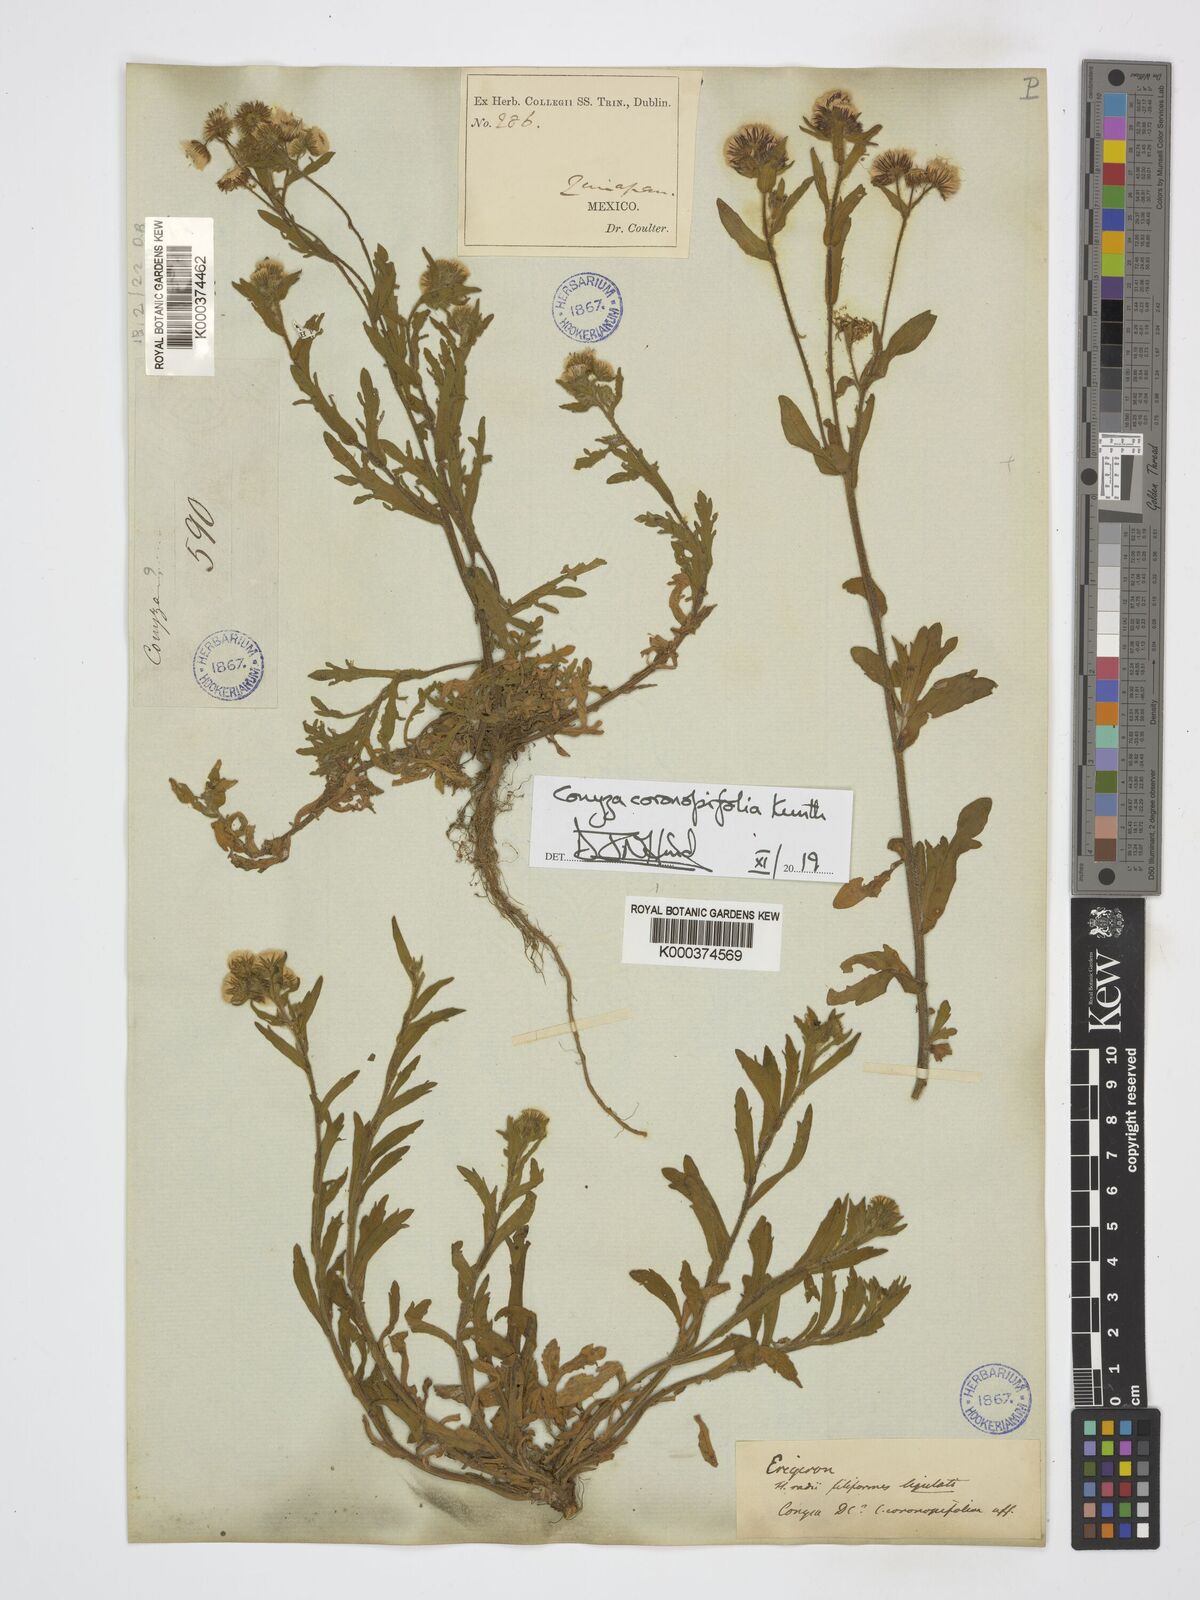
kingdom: Plantae
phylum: Tracheophyta
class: Magnoliopsida
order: Asterales
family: Asteraceae
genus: Erigeron
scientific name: Erigeron variifolius
